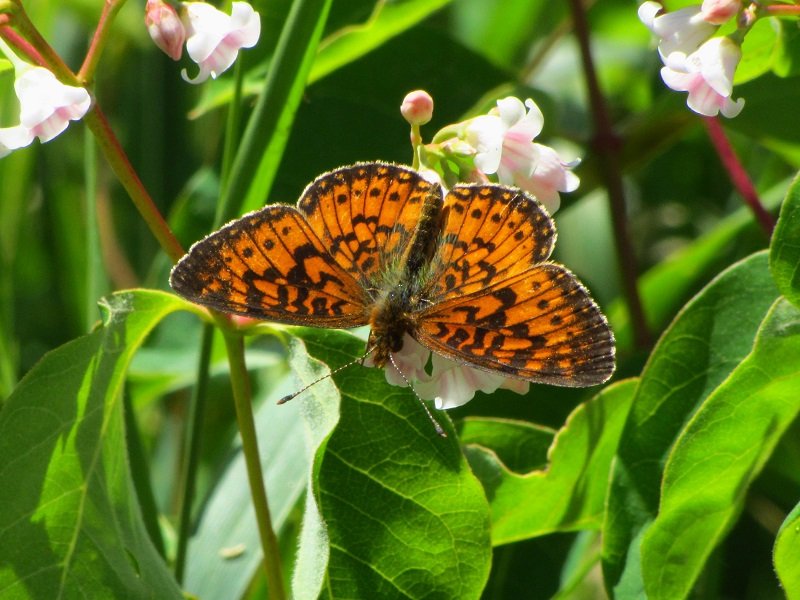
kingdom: Animalia
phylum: Arthropoda
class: Insecta
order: Lepidoptera
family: Nymphalidae
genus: Boloria
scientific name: Boloria selene
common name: Silver-bordered Fritillary
